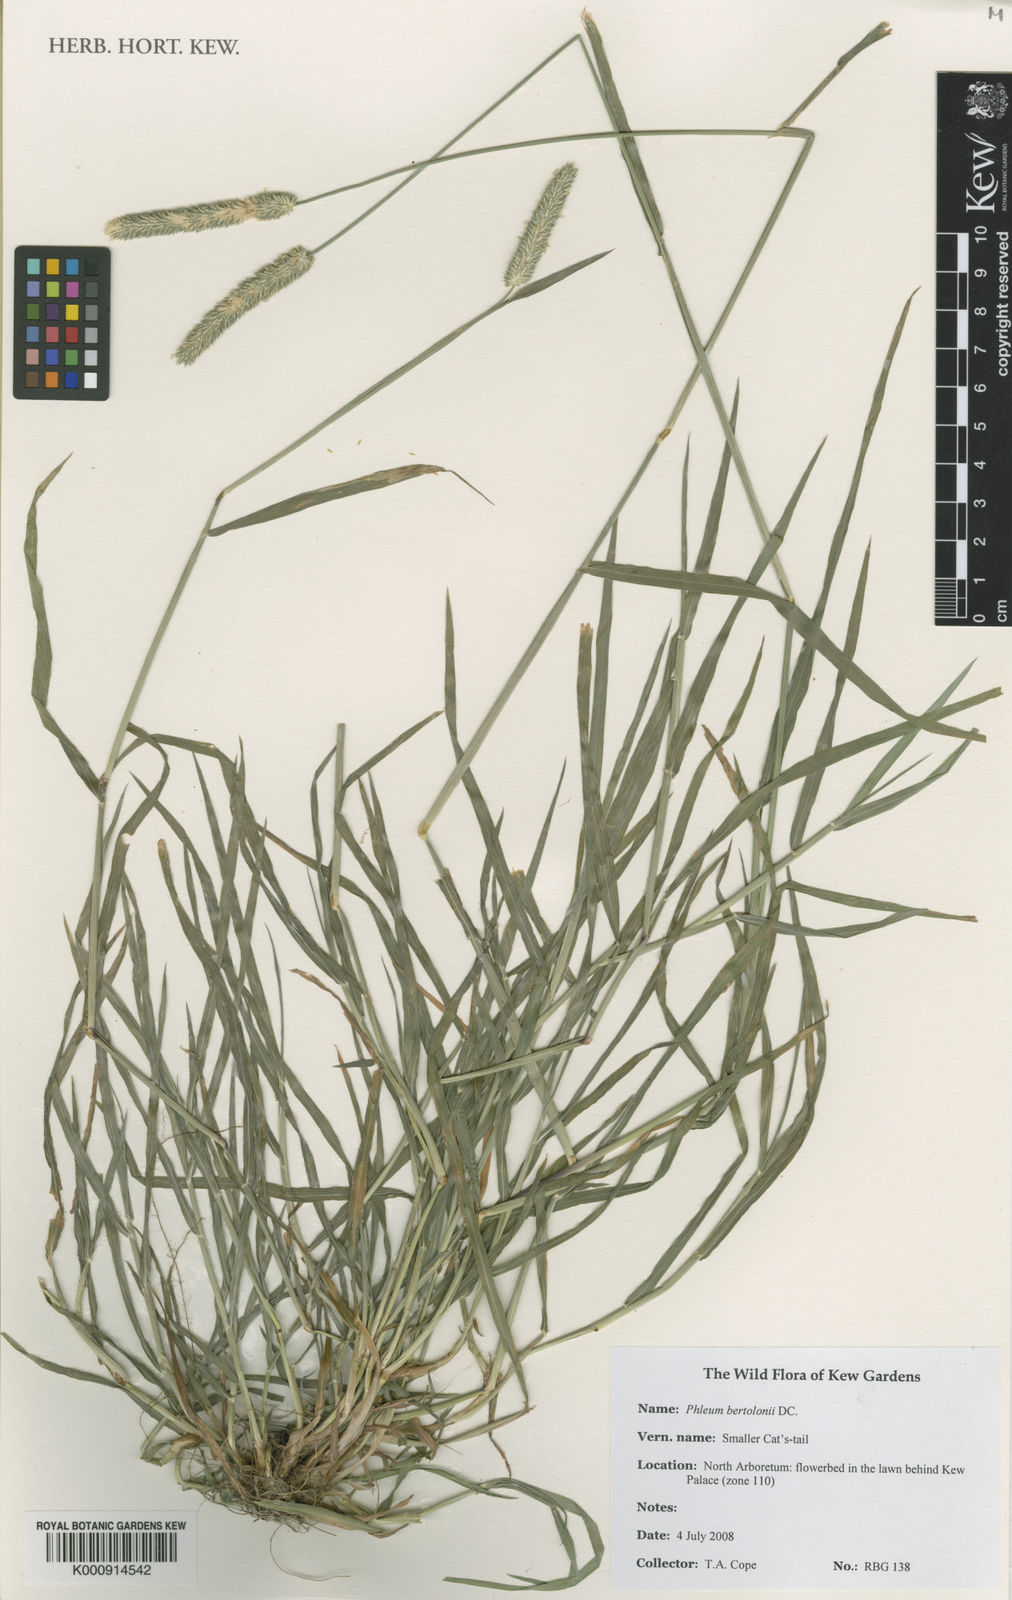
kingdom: Plantae
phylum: Tracheophyta
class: Liliopsida
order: Poales
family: Poaceae
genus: Phleum
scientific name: Phleum bertolonii
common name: Smaller cat's-tail
